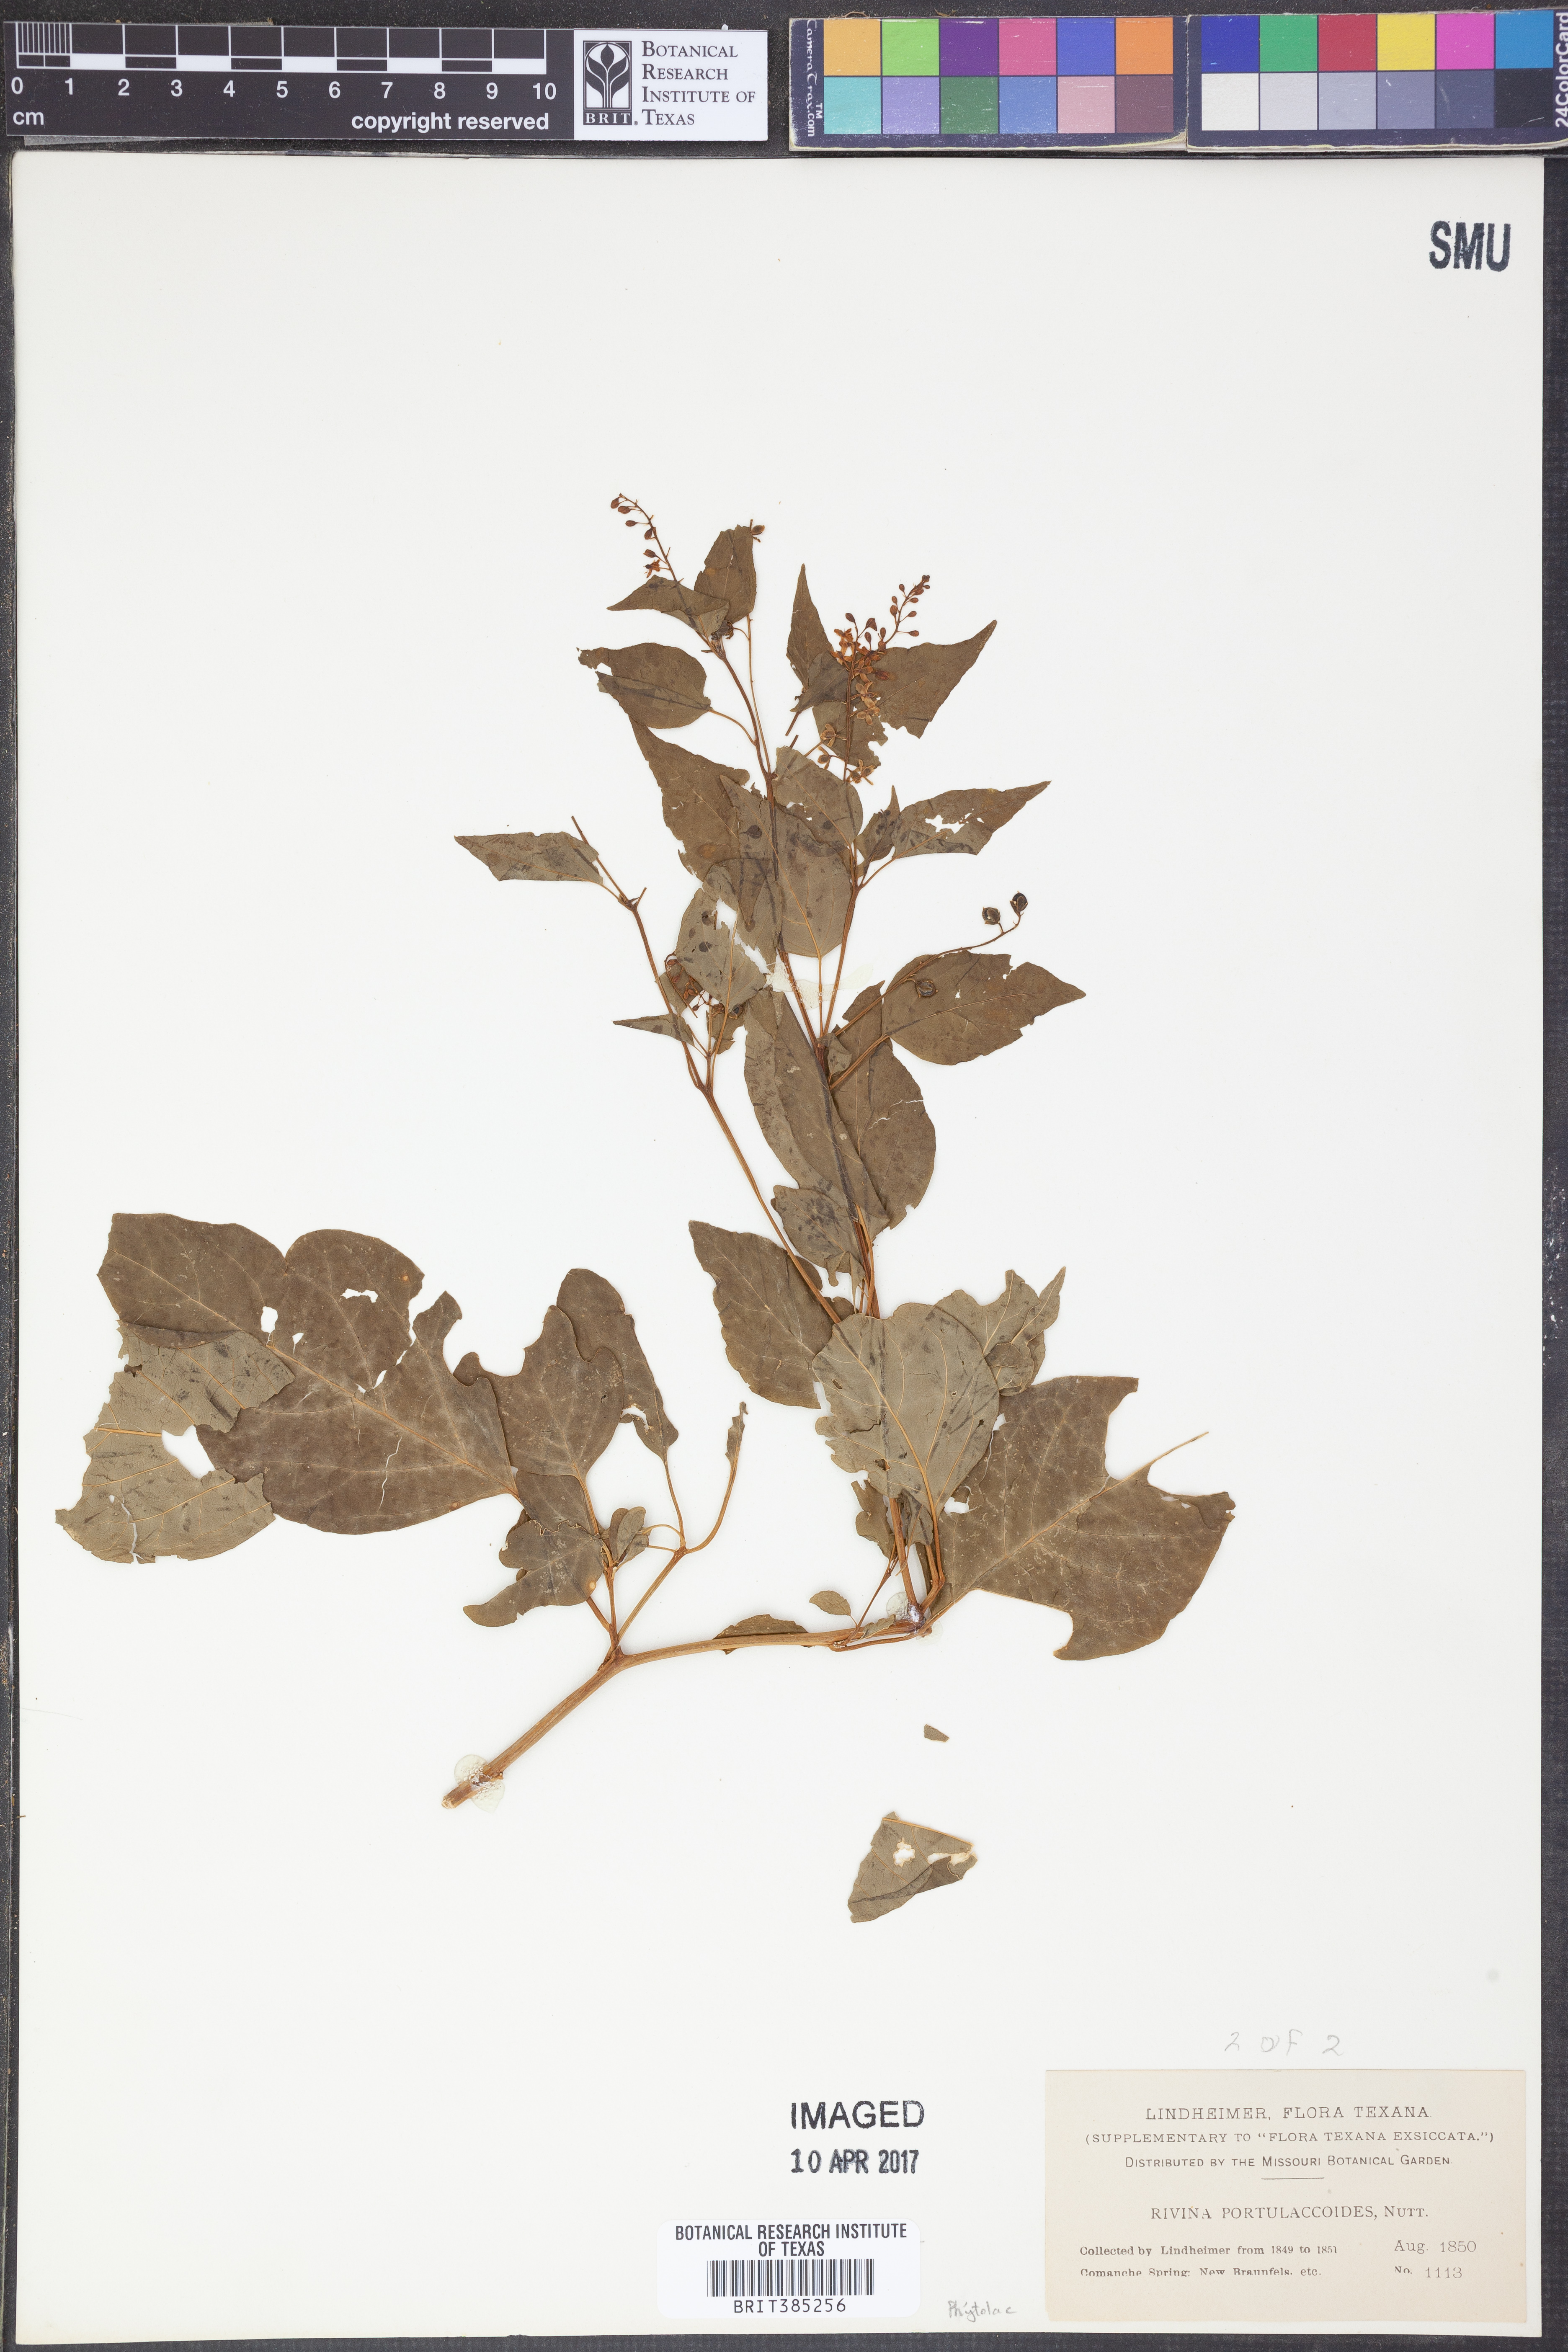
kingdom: Plantae
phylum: Tracheophyta
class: Magnoliopsida
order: Caryophyllales
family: Phytolaccaceae
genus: Rivina
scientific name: Rivina humilis
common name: Rougeplant
